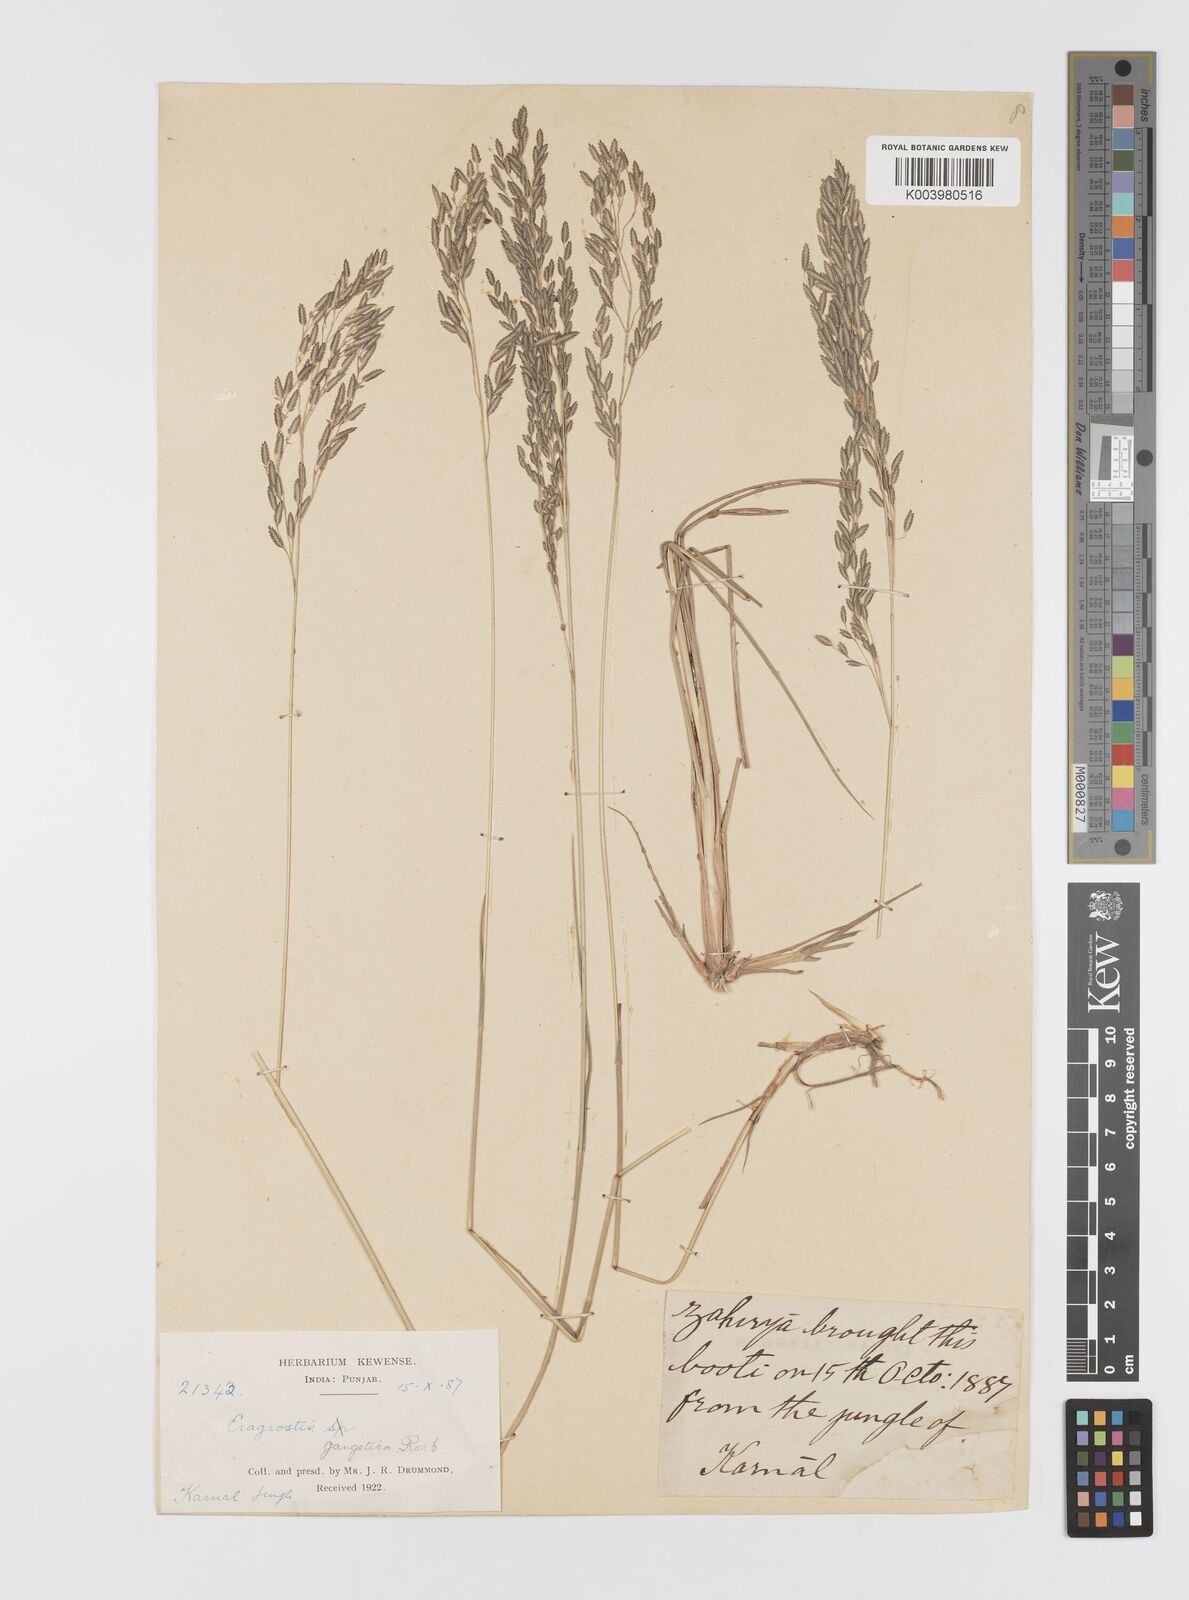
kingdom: Plantae
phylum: Tracheophyta
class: Liliopsida
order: Poales
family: Poaceae
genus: Eragrostis
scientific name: Eragrostis atrovirens
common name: Thalia lovegrass
